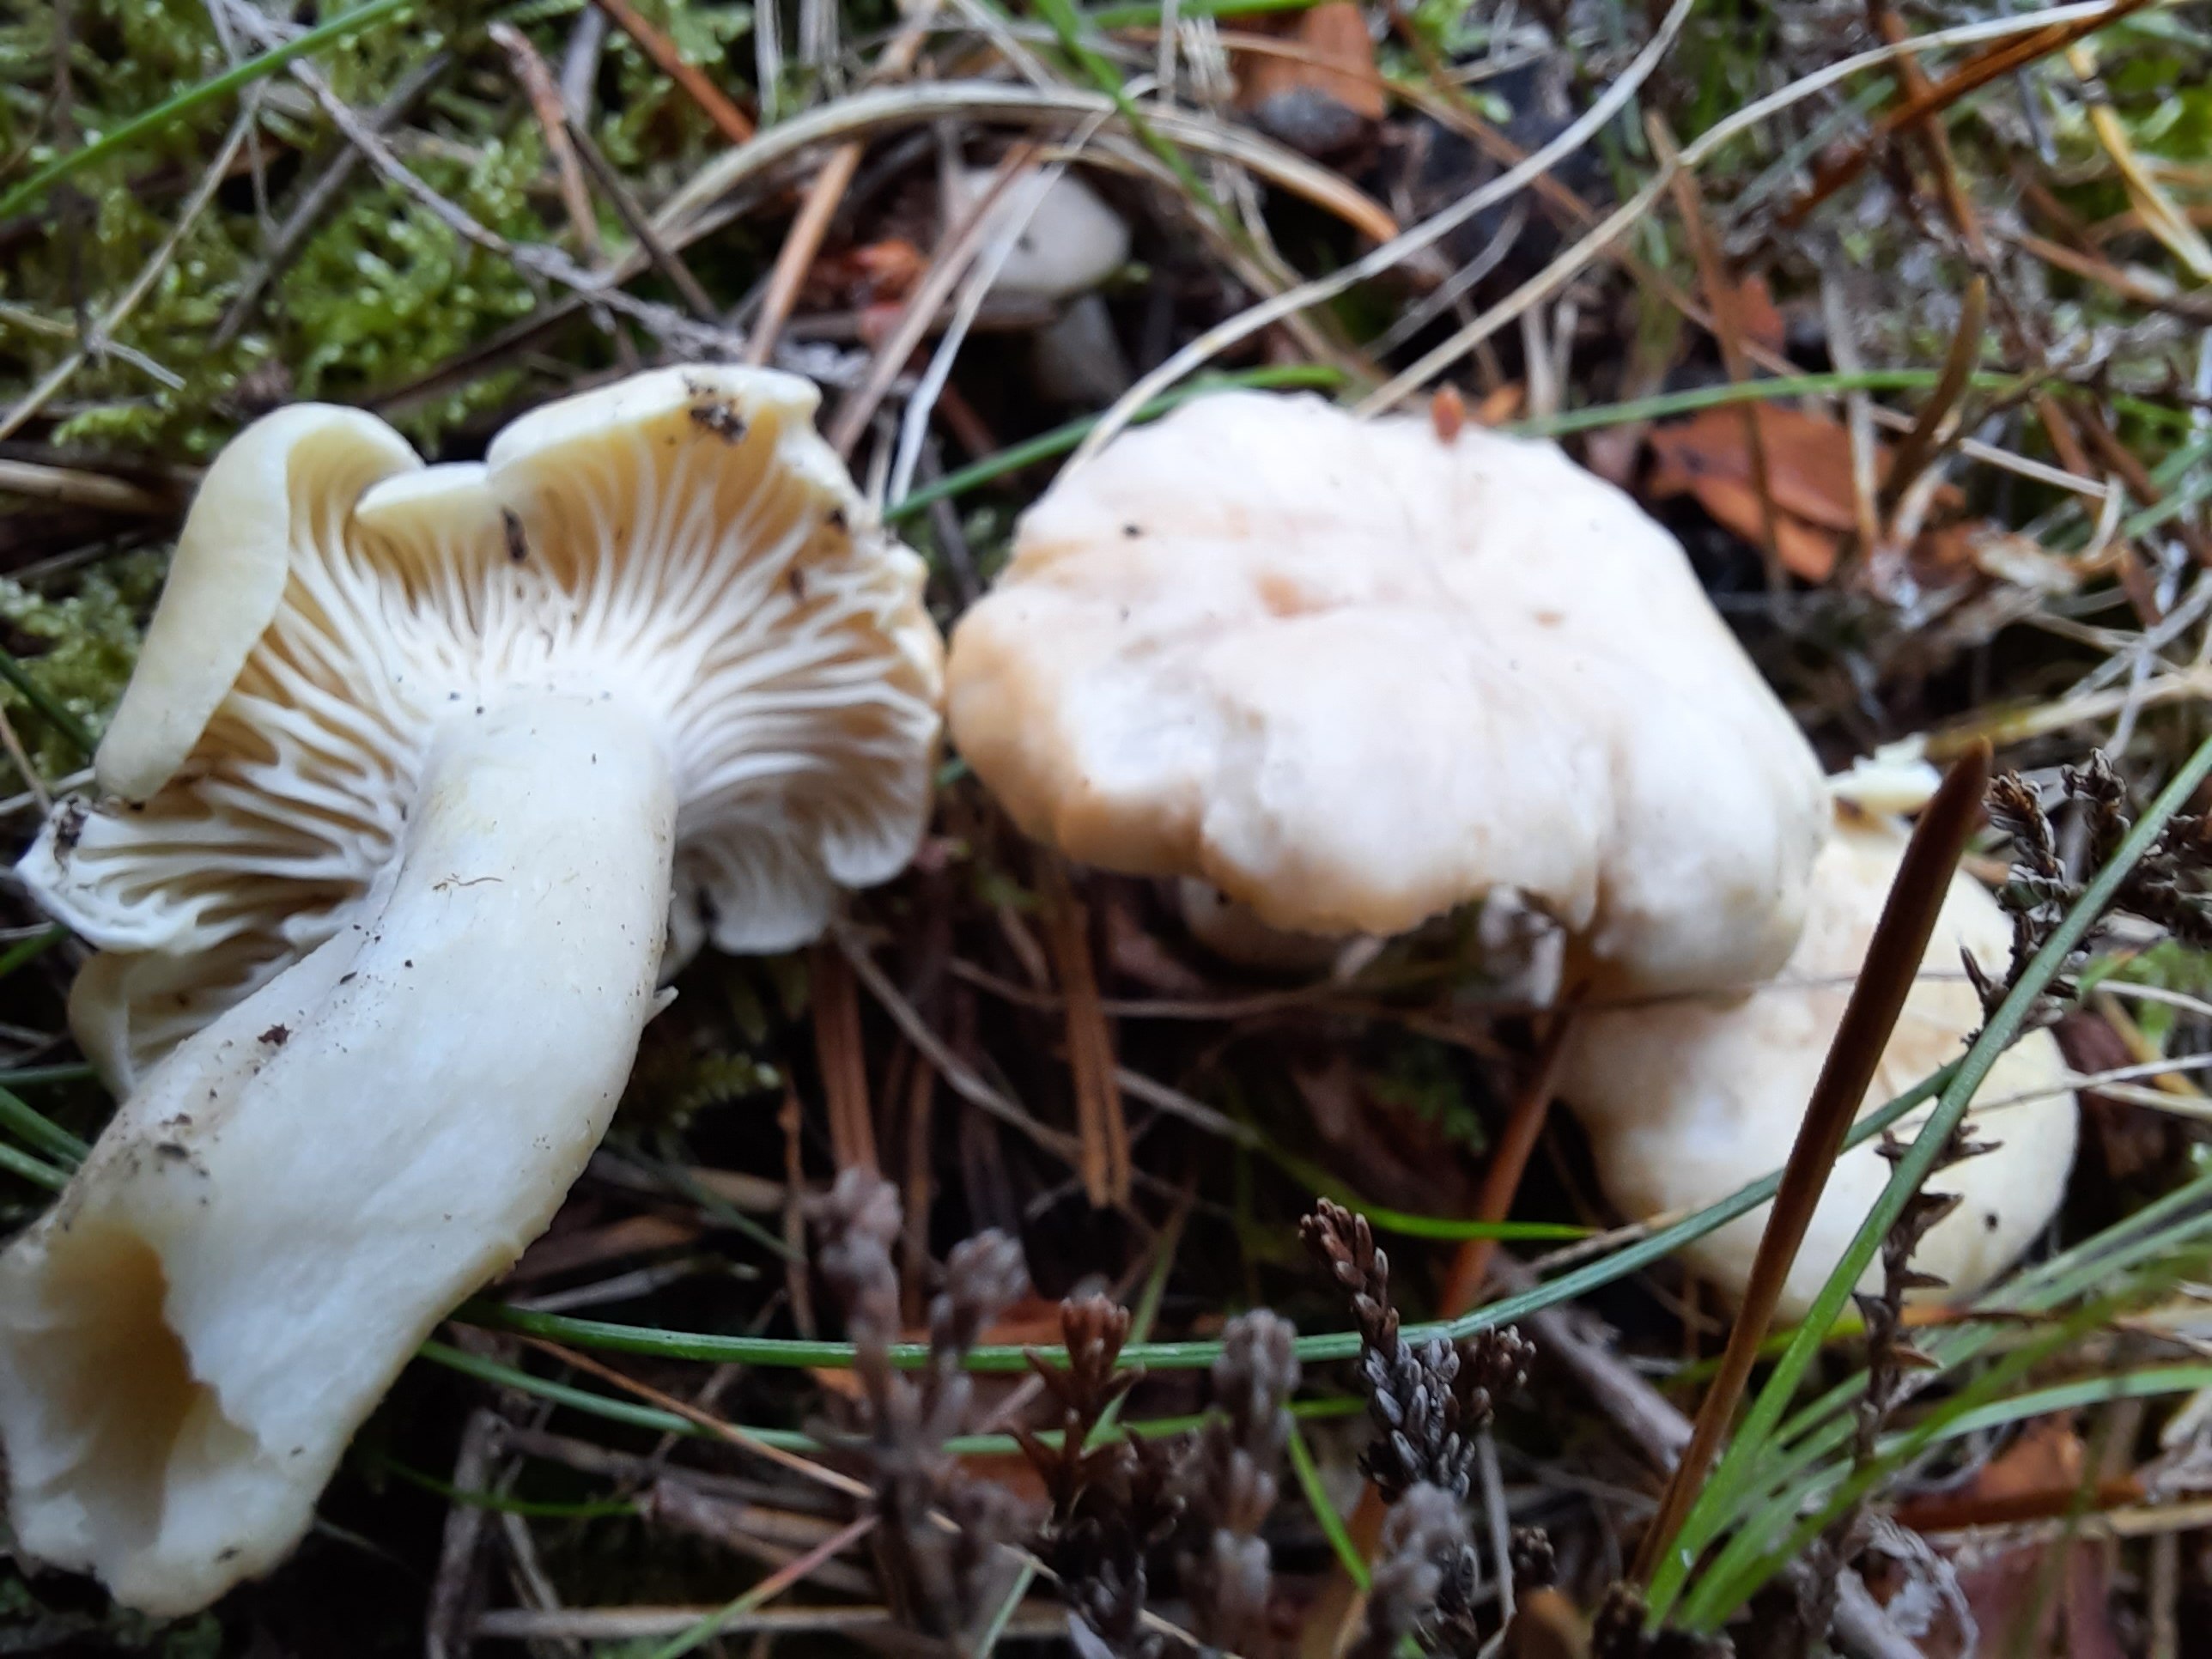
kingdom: Fungi
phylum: Basidiomycota
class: Agaricomycetes
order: Cantharellales
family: Hydnaceae
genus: Cantharellus
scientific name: Cantharellus cibarius
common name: almindelig kantarel
